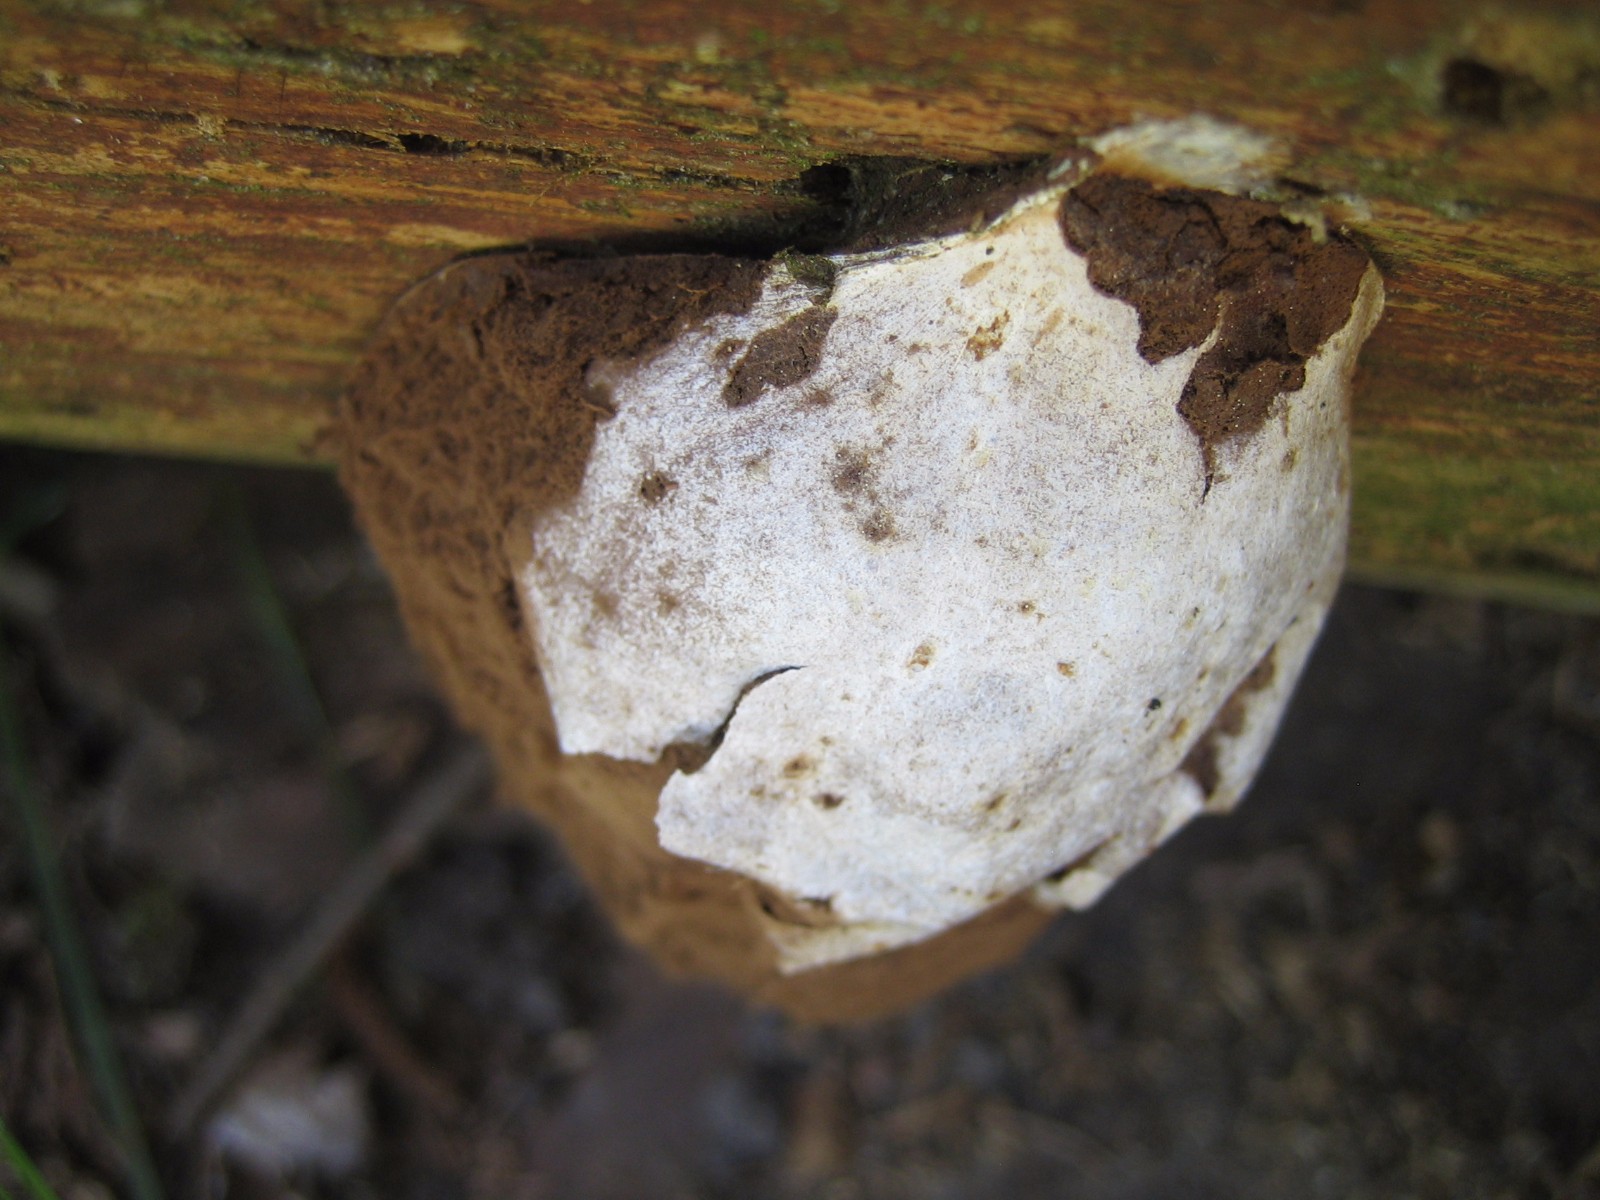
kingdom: Protozoa
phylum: Mycetozoa
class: Myxomycetes
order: Cribrariales
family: Tubiferaceae
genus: Reticularia
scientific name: Reticularia lycoperdon
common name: skinnende støvpude
